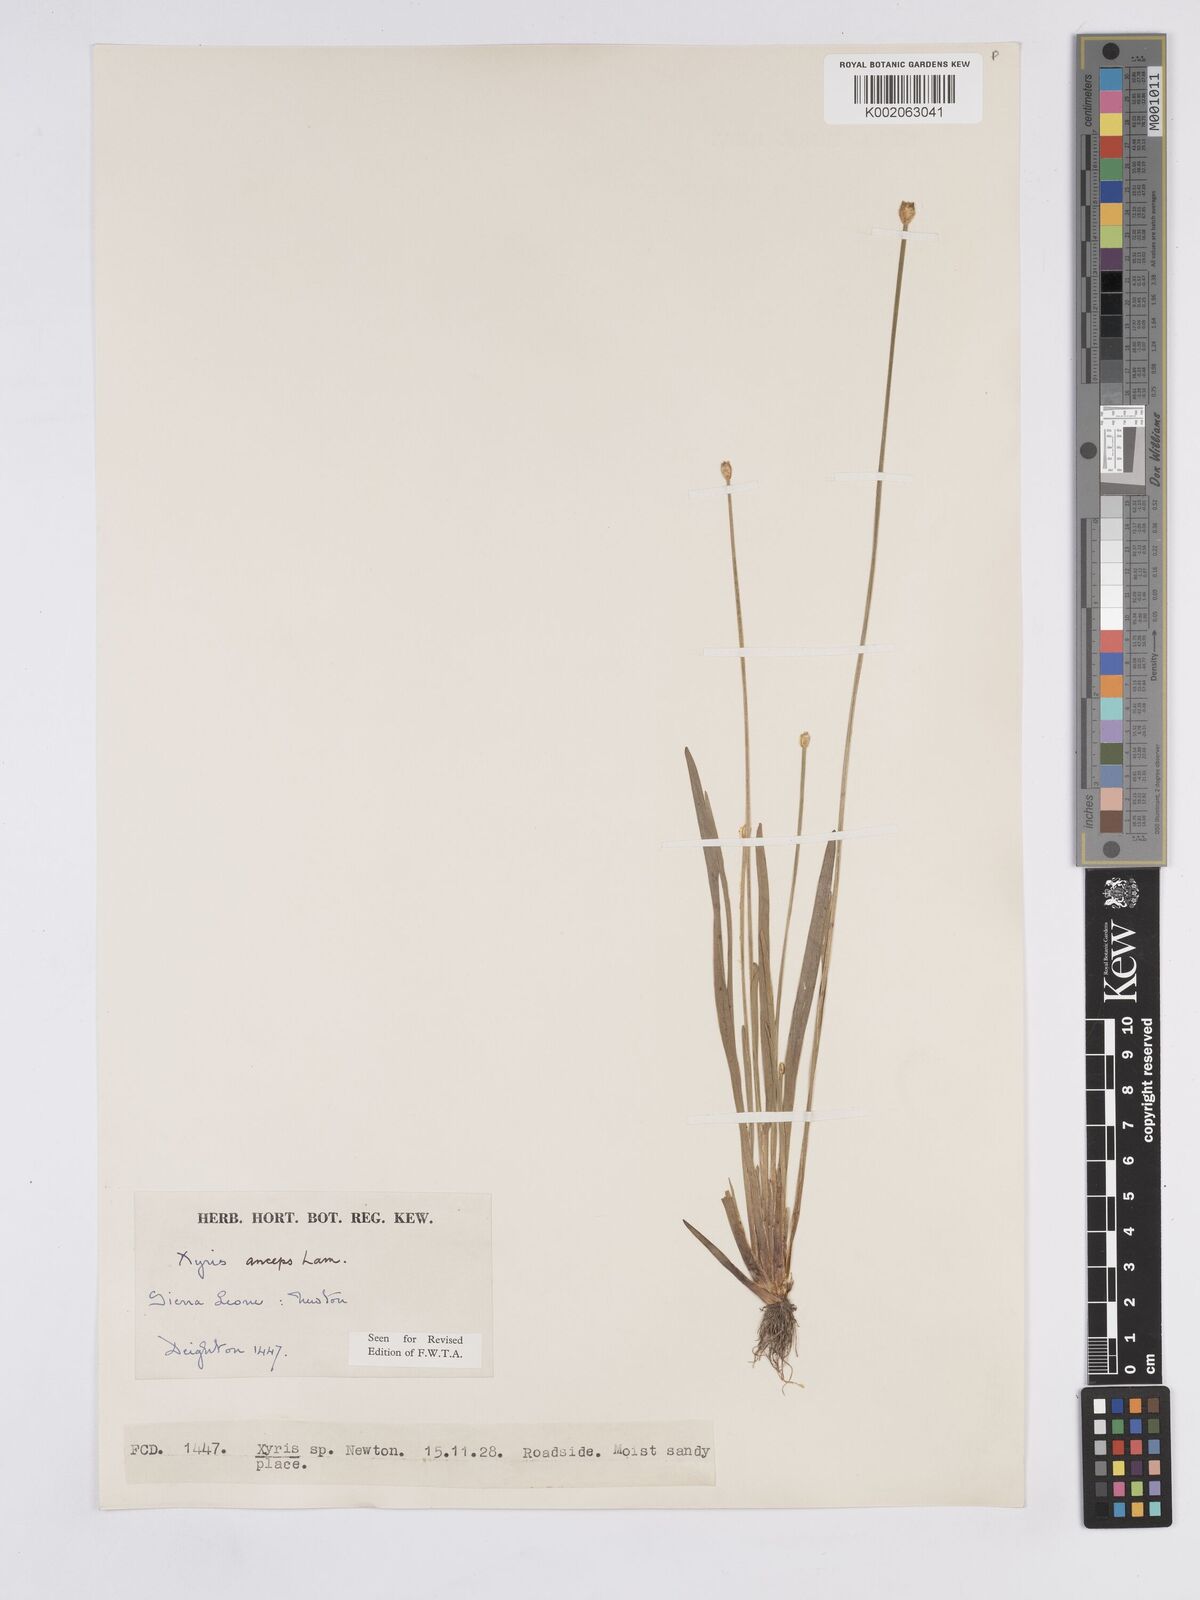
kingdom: Plantae
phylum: Tracheophyta
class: Liliopsida
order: Poales
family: Xyridaceae
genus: Xyris
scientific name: Xyris anceps
